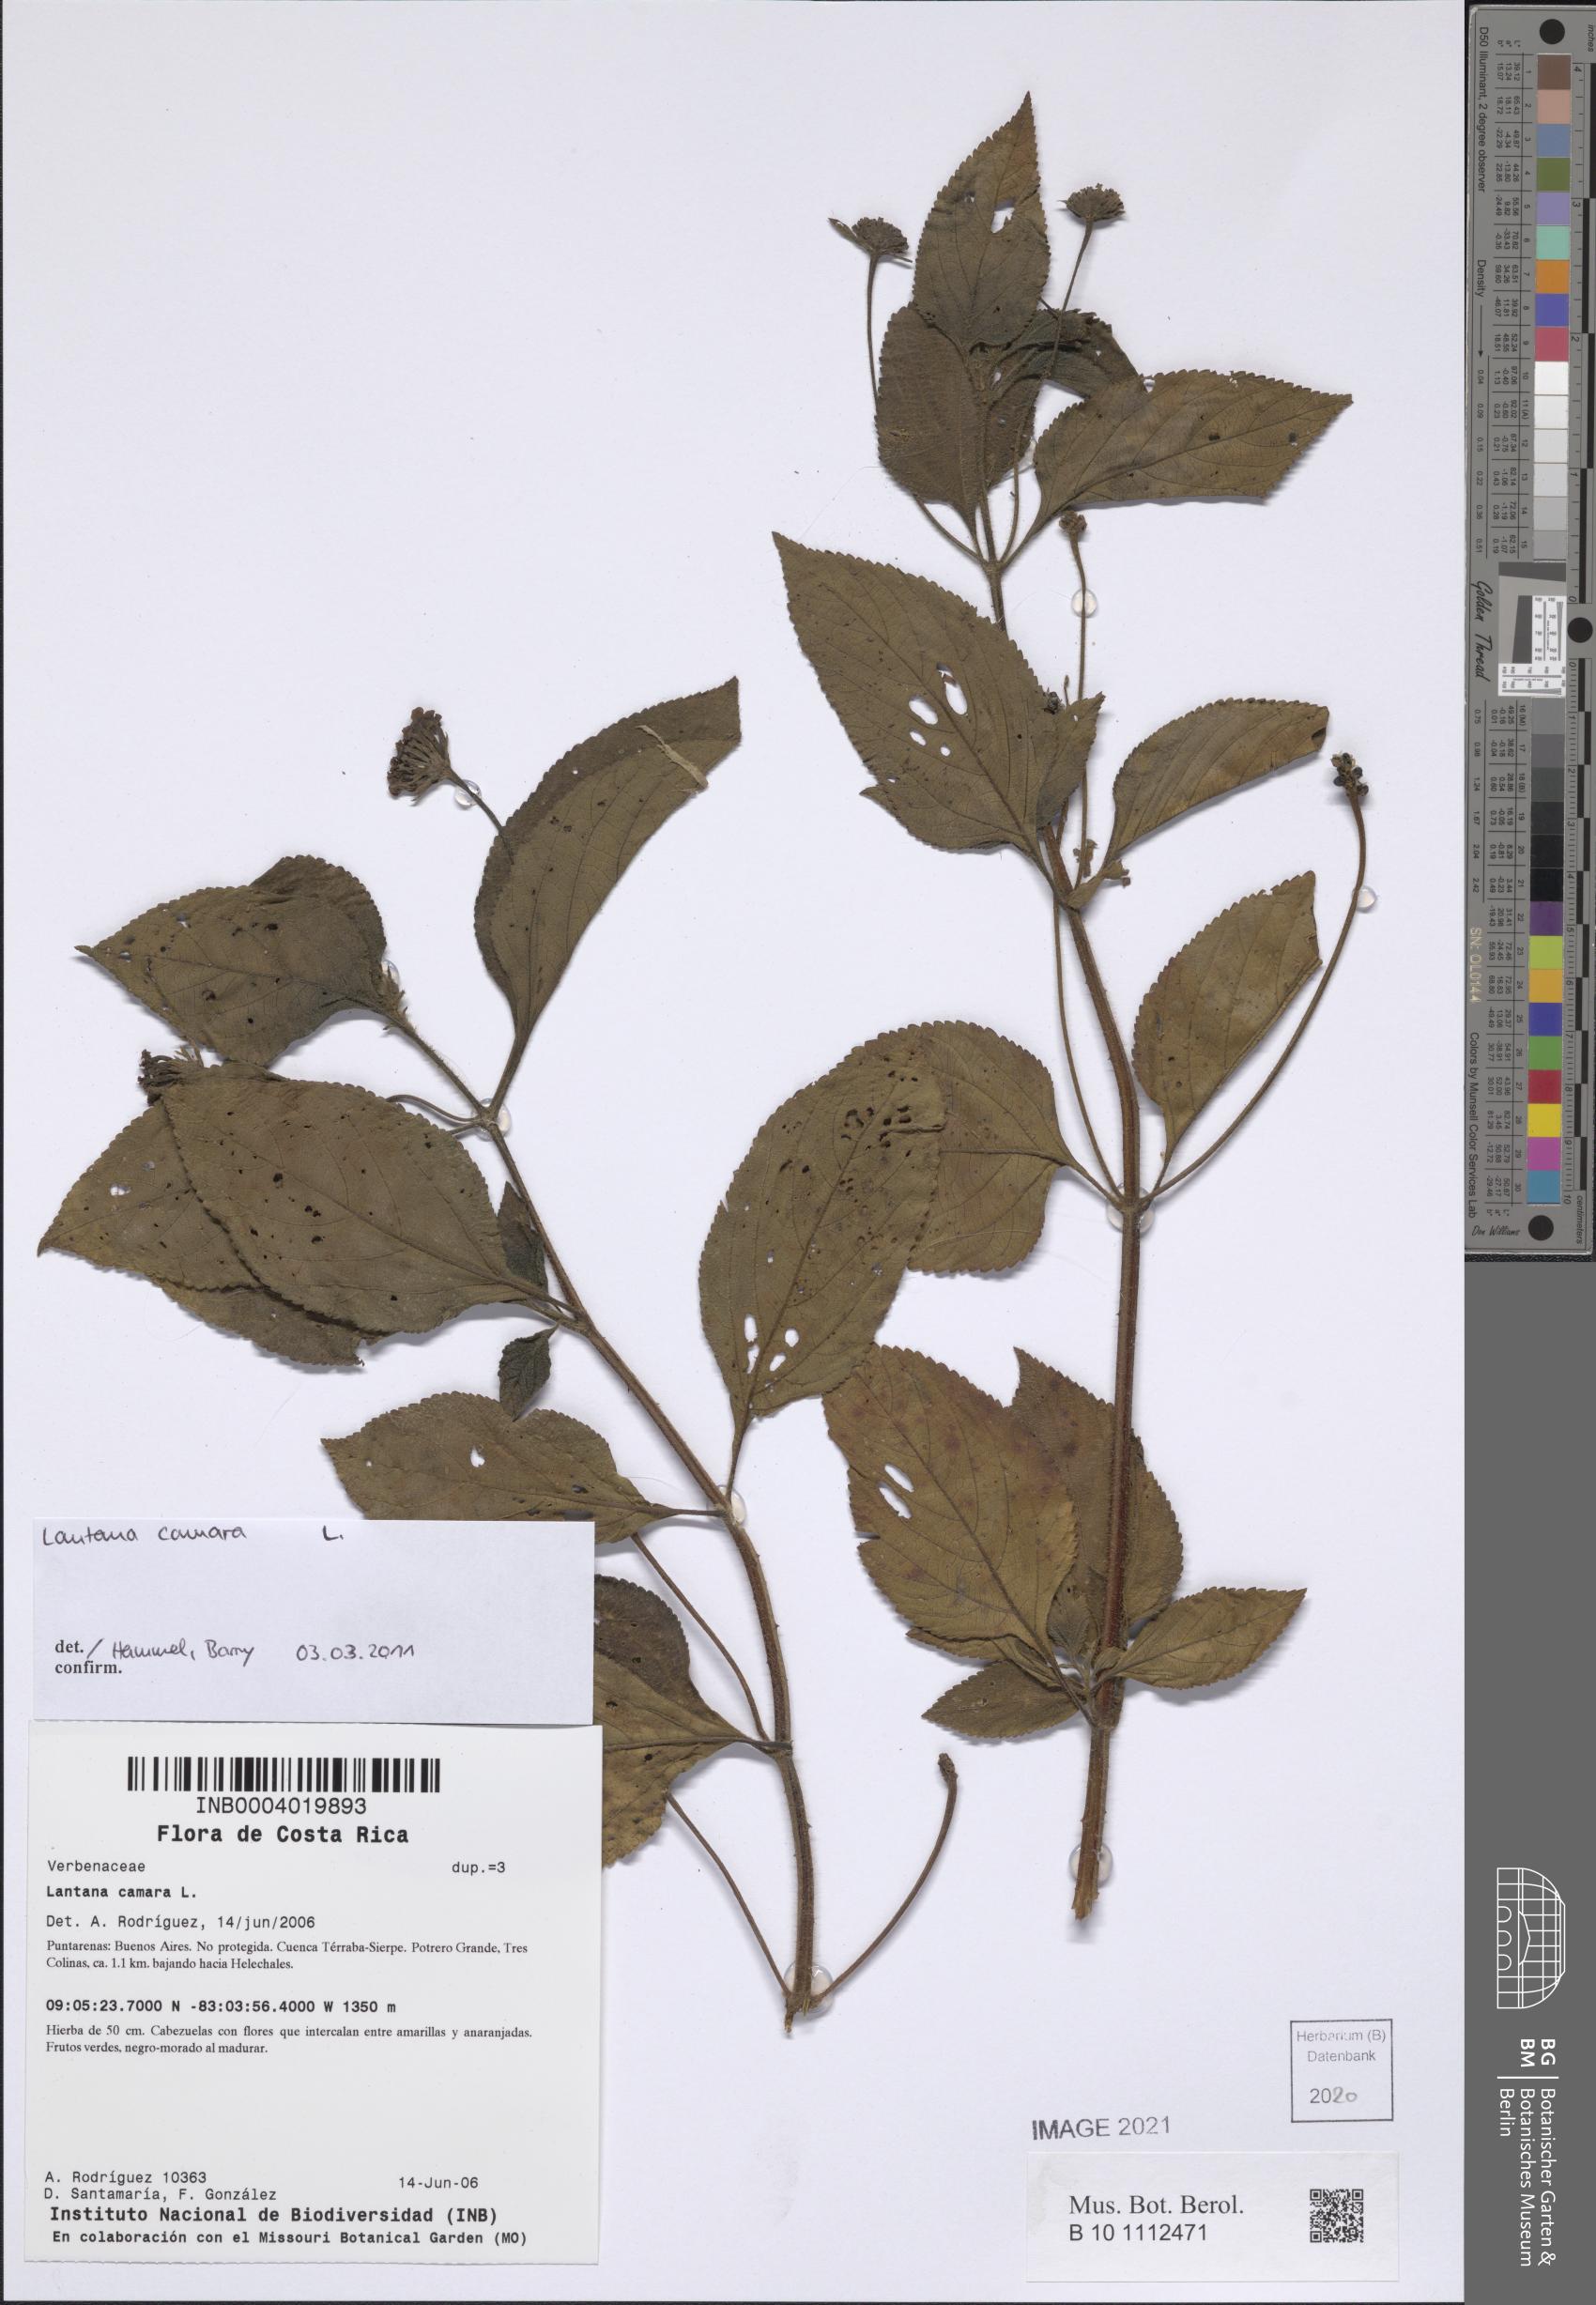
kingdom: Plantae
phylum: Tracheophyta
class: Magnoliopsida
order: Lamiales
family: Verbenaceae
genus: Lantana
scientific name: Lantana camara
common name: Lantana
